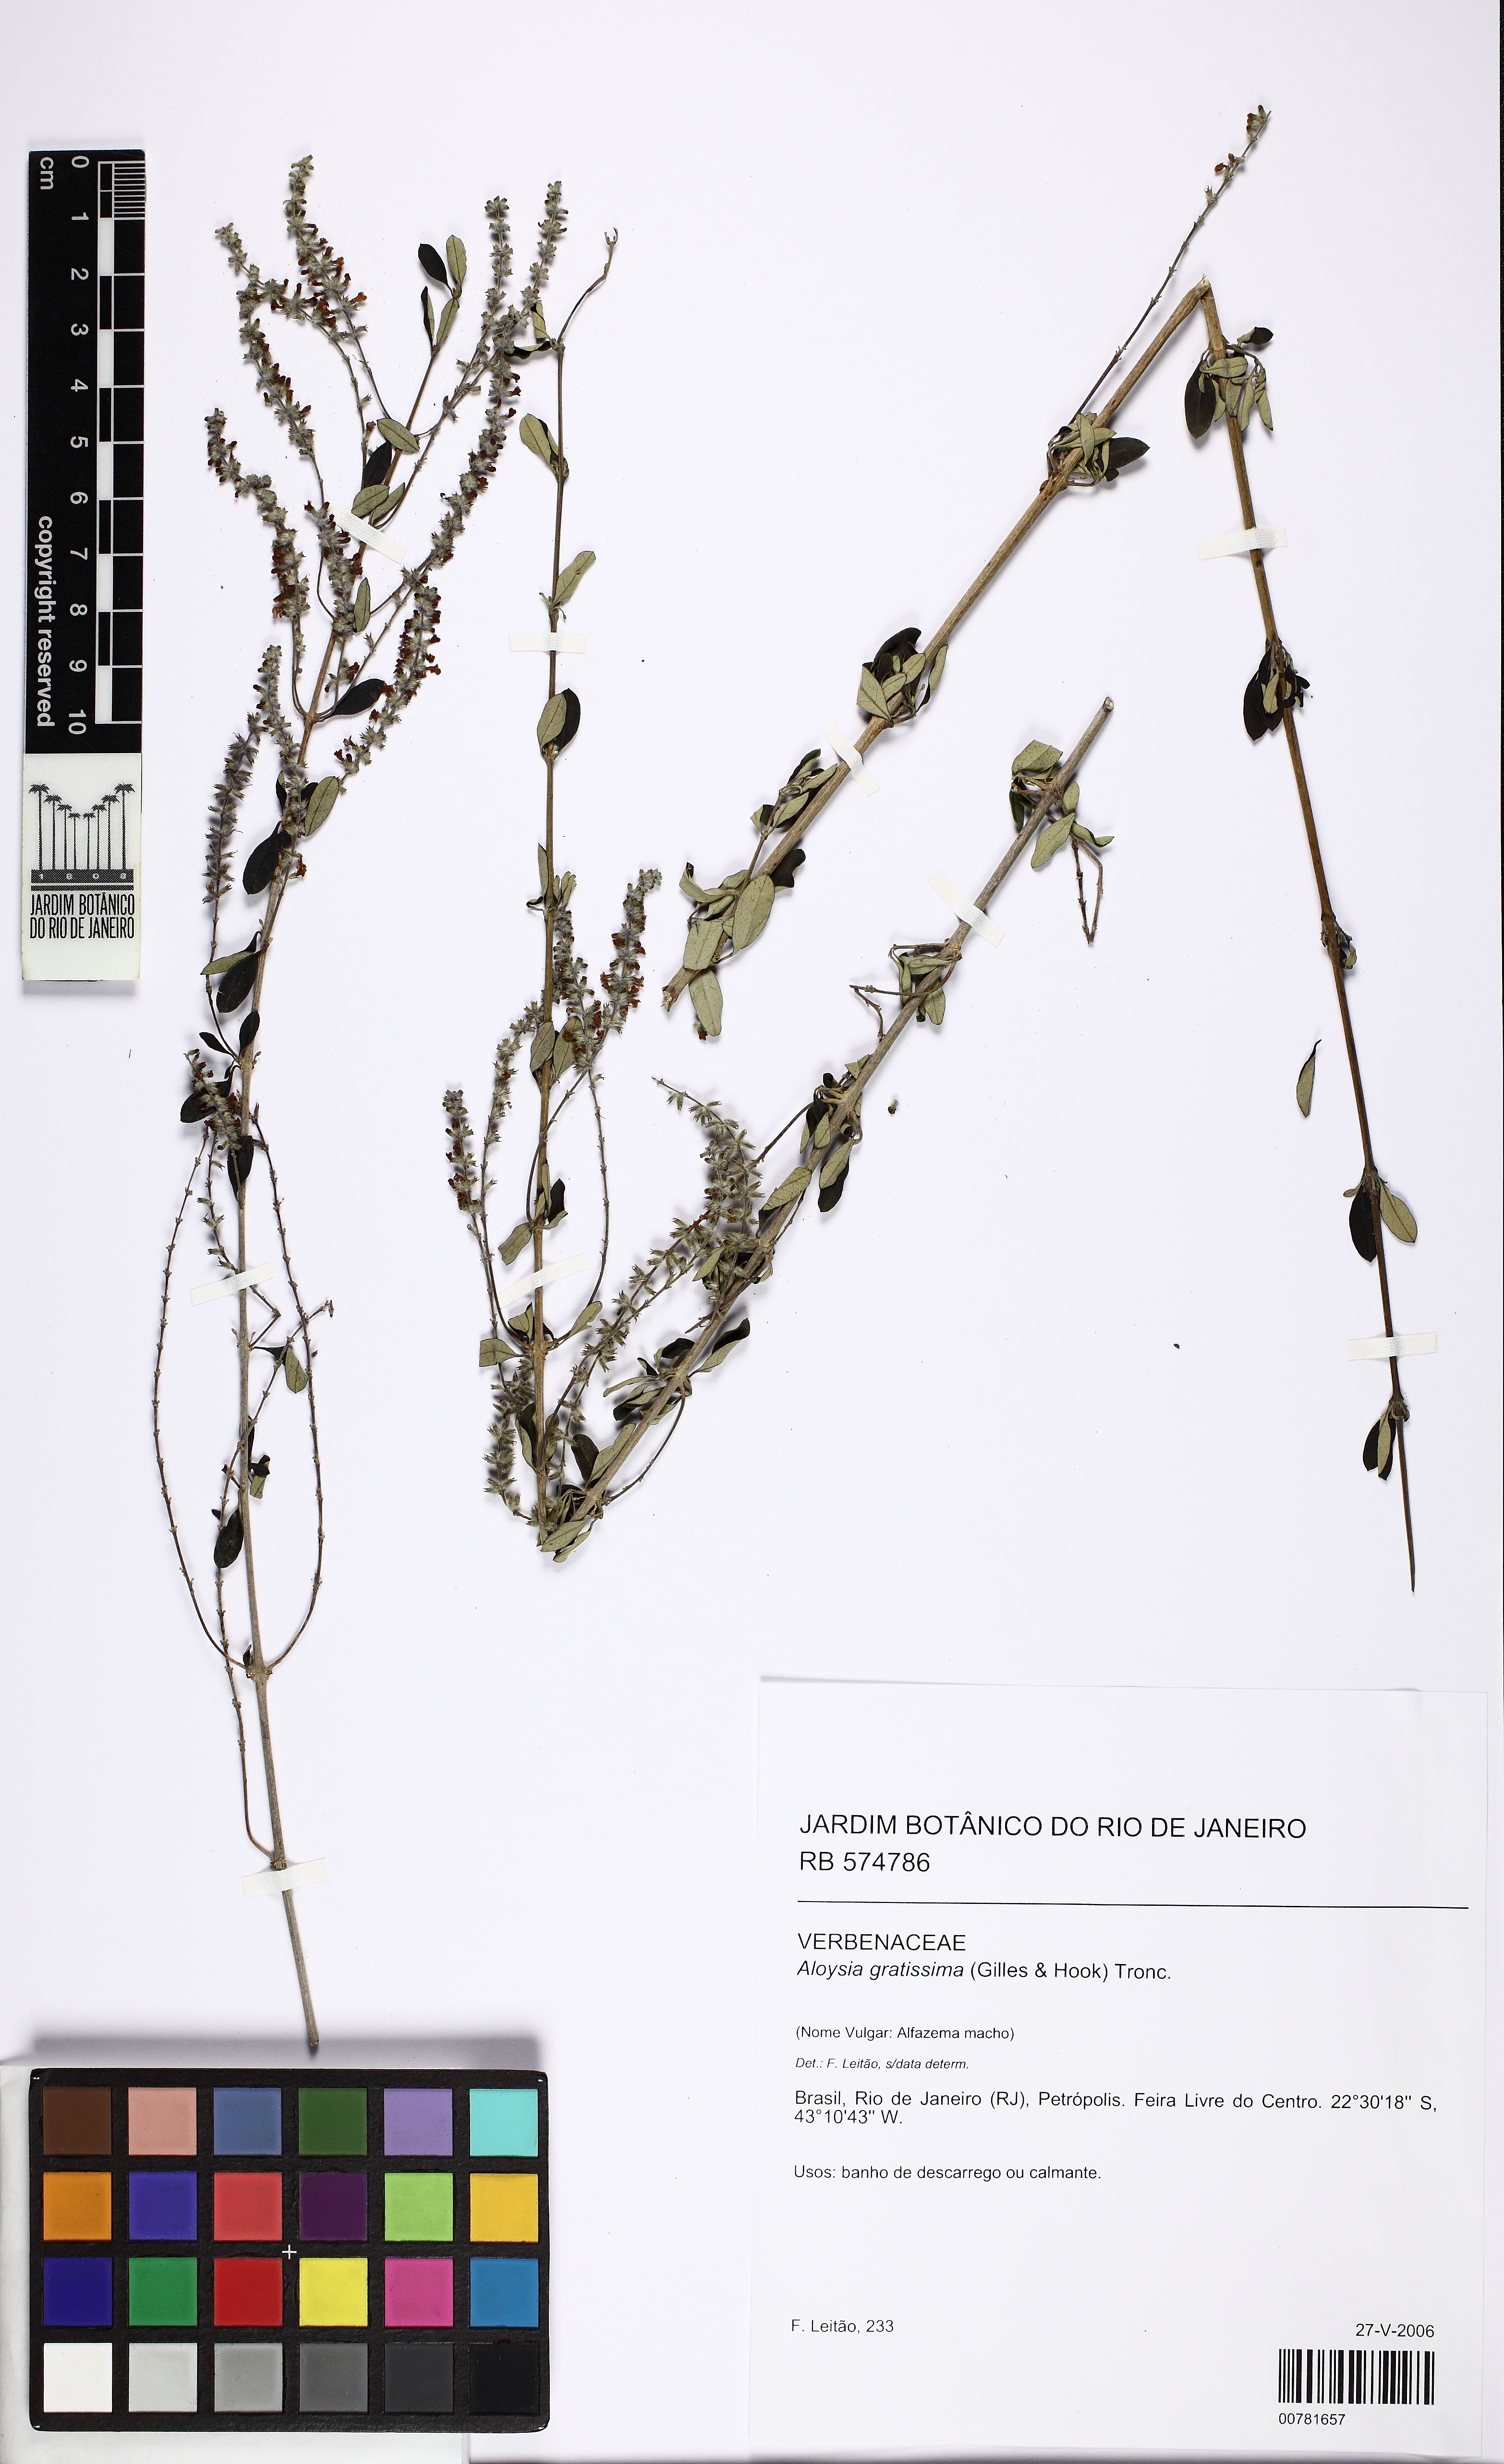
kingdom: Plantae
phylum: Tracheophyta
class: Magnoliopsida
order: Lamiales
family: Verbenaceae
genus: Aloysia
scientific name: Aloysia gratissima
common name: Common bee-brush
